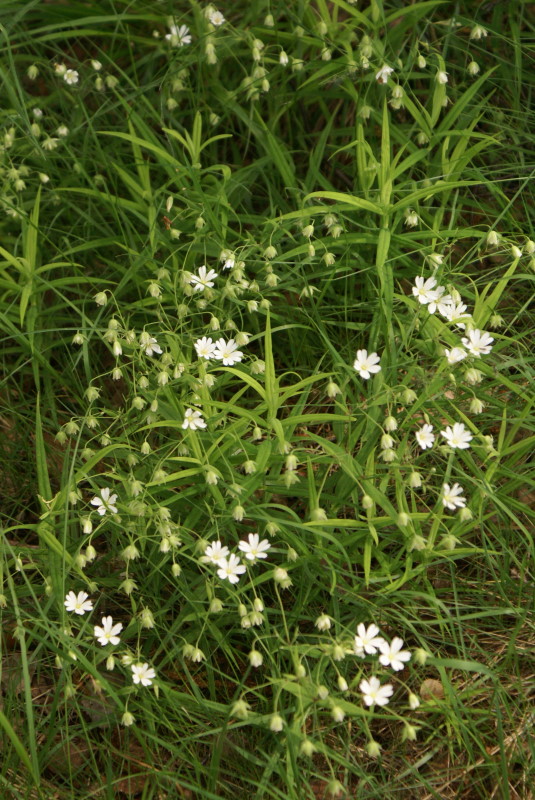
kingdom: Plantae
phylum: Tracheophyta
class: Magnoliopsida
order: Caryophyllales
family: Caryophyllaceae
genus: Rabelera
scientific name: Rabelera holostea
